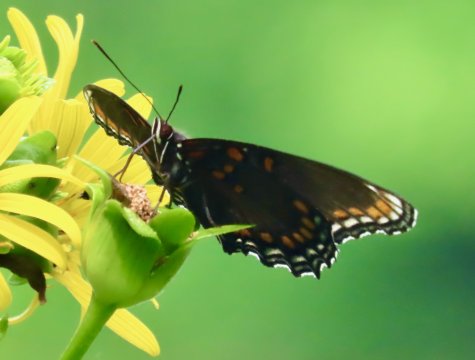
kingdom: Animalia
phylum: Arthropoda
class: Insecta
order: Lepidoptera
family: Nymphalidae
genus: Limenitis
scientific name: Limenitis arthemis
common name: Red-spotted Admiral
